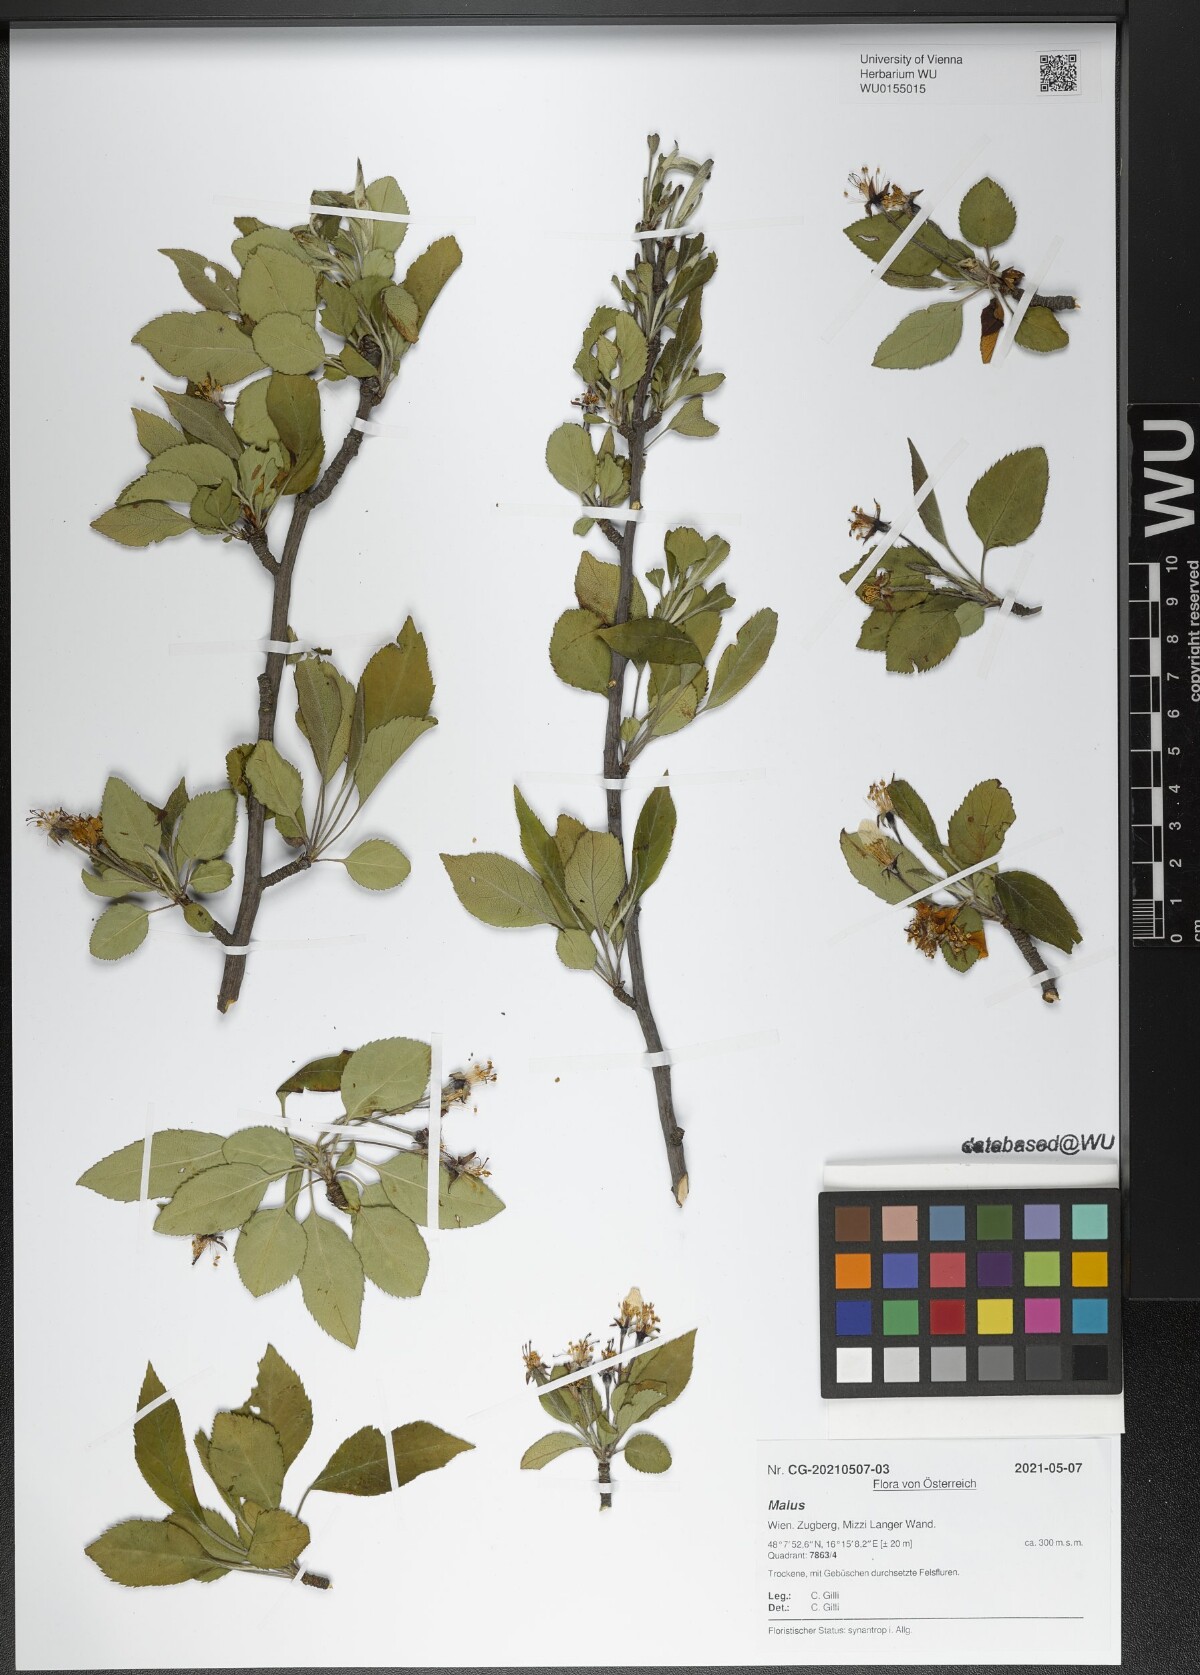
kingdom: Plantae
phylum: Tracheophyta
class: Magnoliopsida
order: Rosales
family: Rosaceae
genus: Malus
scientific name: Malus
